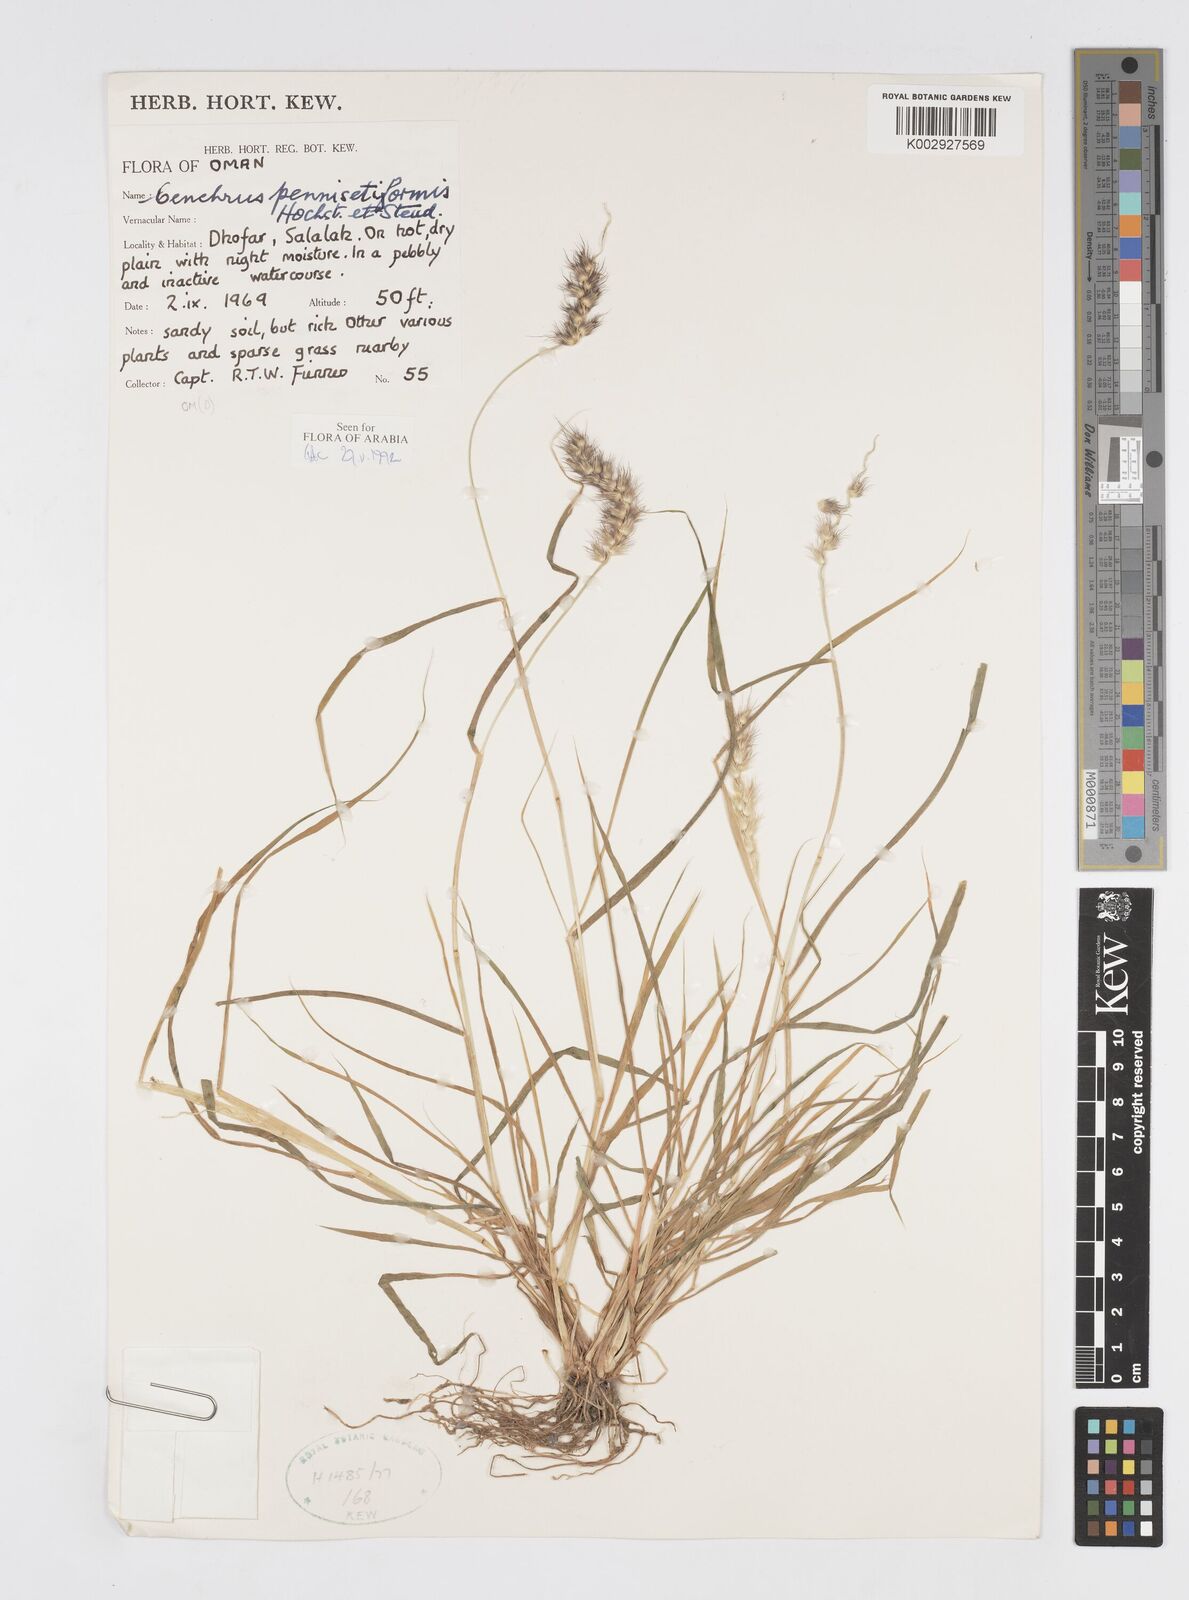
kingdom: Plantae
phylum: Tracheophyta
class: Liliopsida
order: Poales
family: Poaceae
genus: Cenchrus
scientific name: Cenchrus pennisetiformis
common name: Cloncurry
